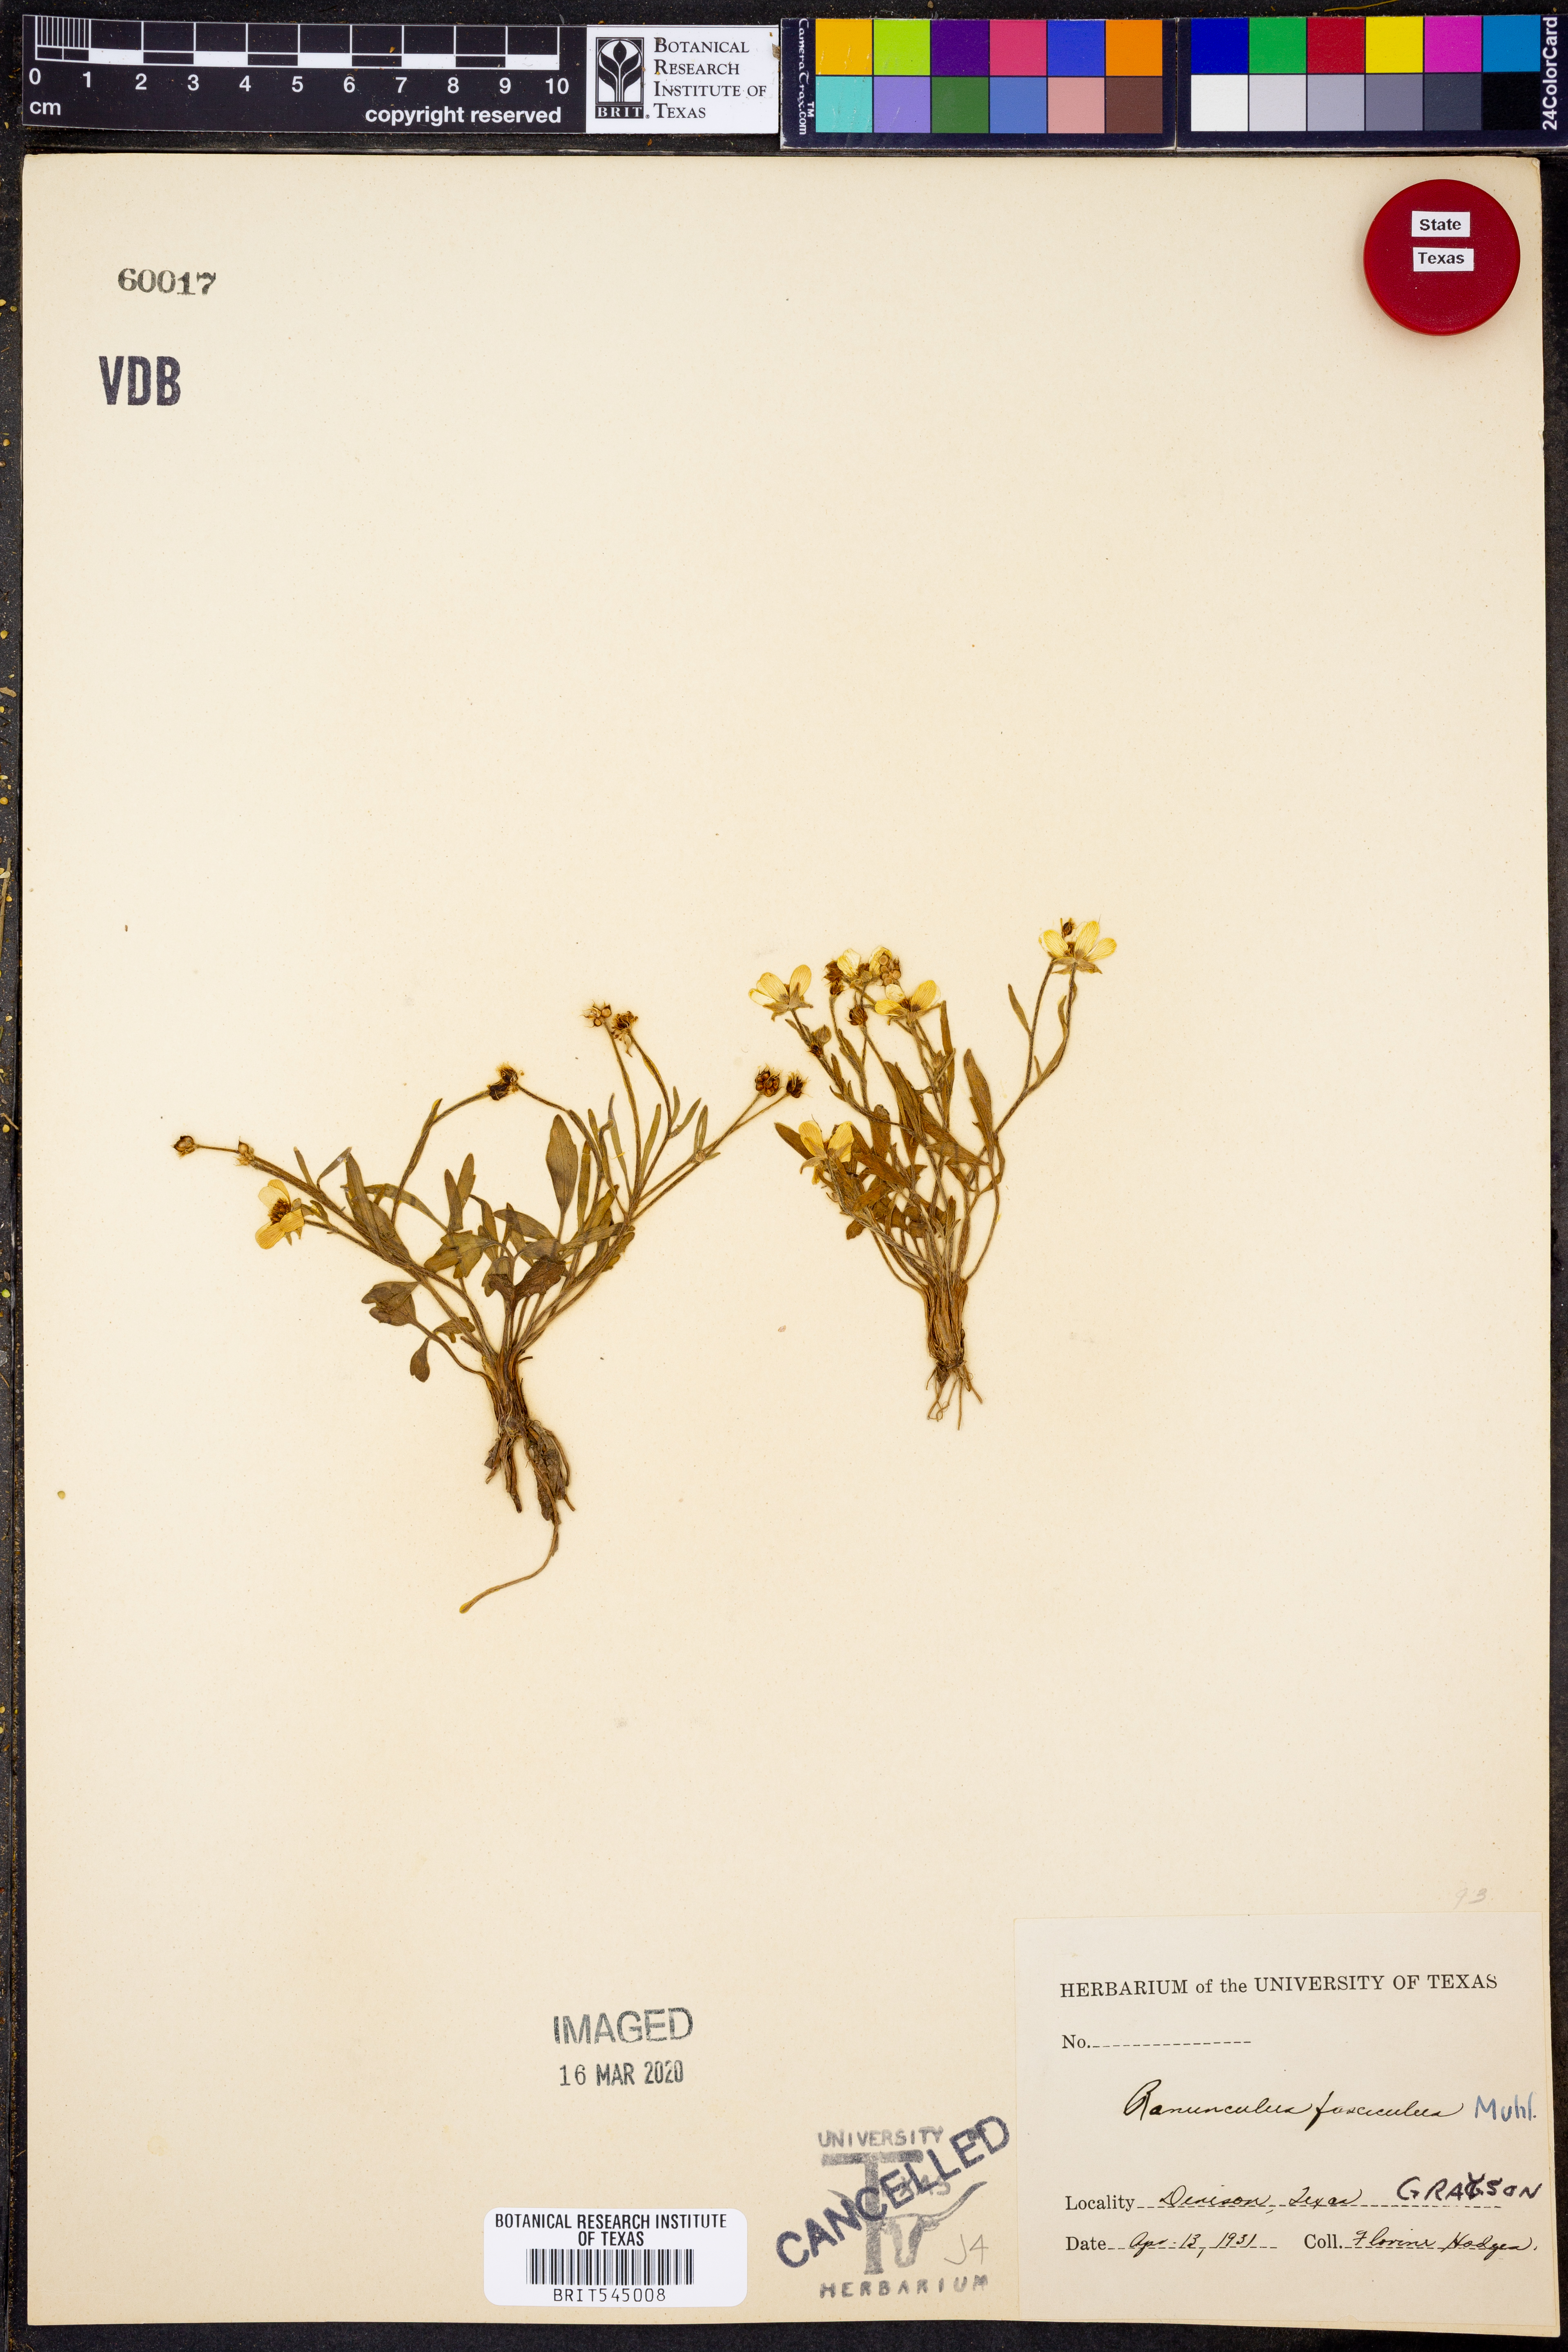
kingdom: Plantae
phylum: Tracheophyta
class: Magnoliopsida
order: Ranunculales
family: Ranunculaceae
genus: Ranunculus
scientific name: Ranunculus fascicularis
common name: Early buttercup
